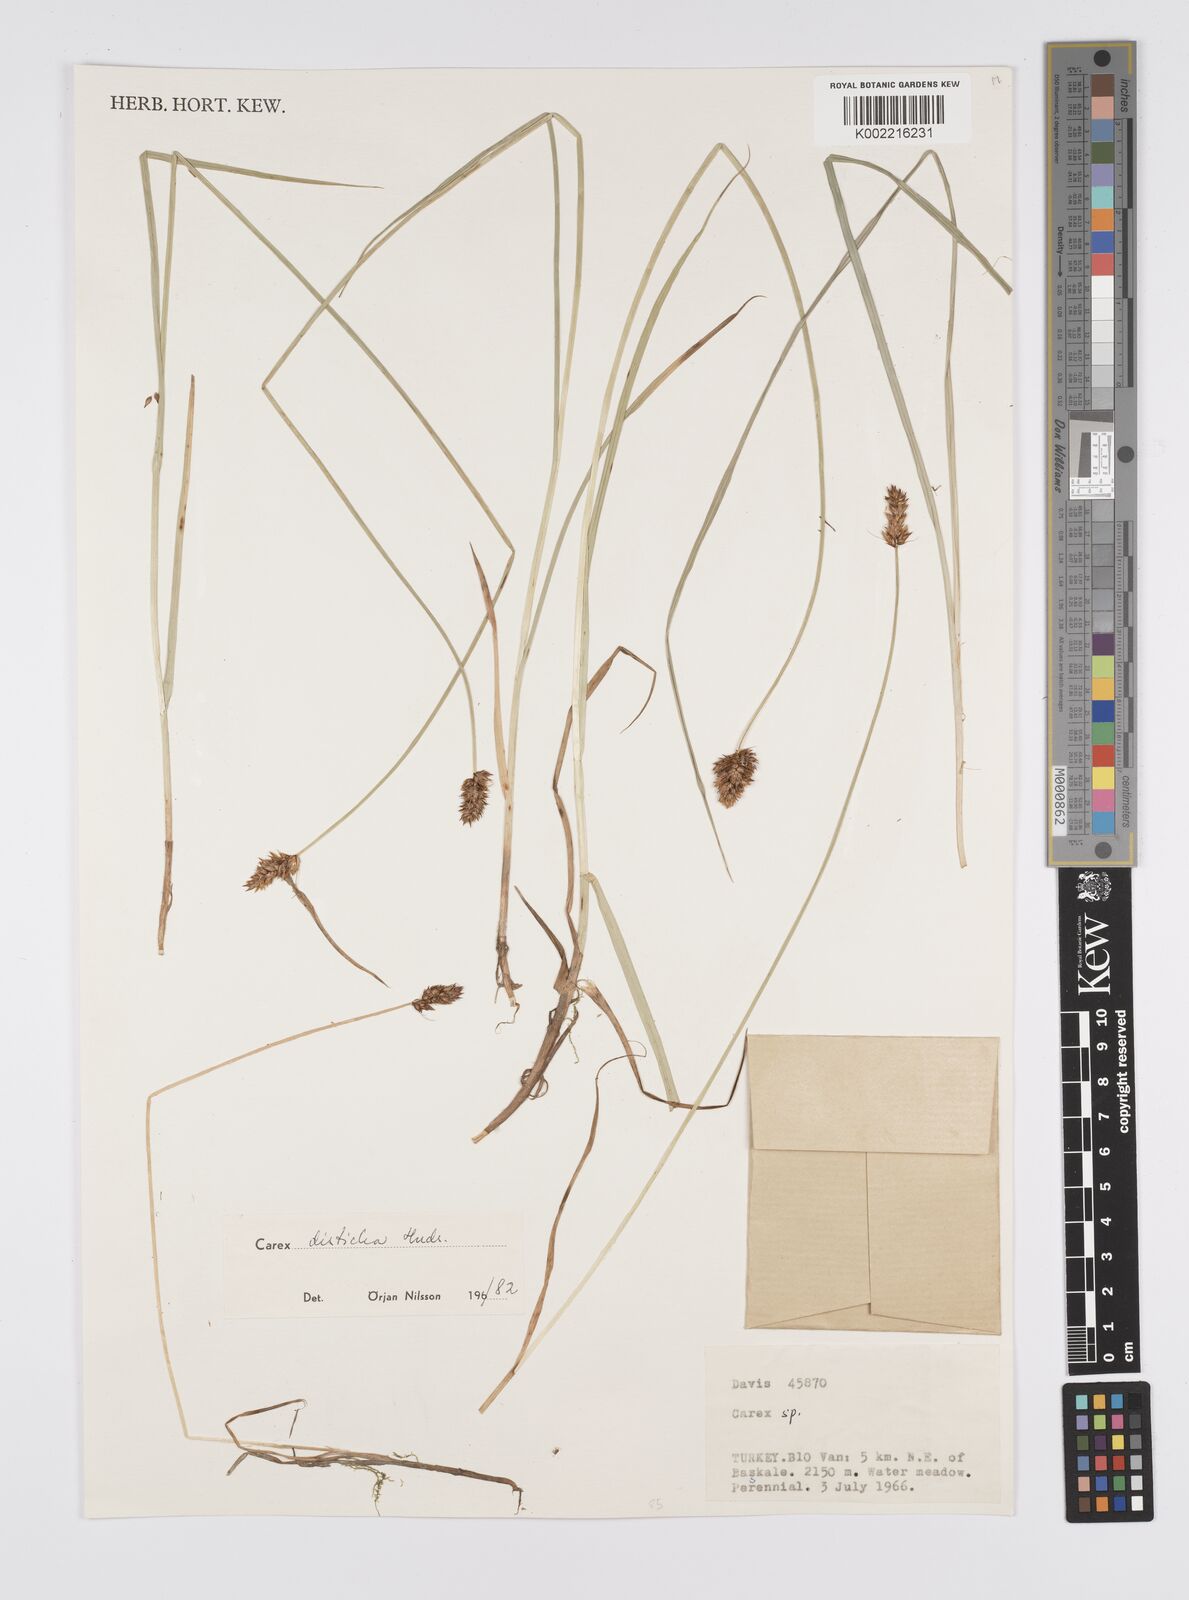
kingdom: Plantae
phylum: Tracheophyta
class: Liliopsida
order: Poales
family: Cyperaceae
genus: Carex
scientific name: Carex disticha
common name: Brown sedge
